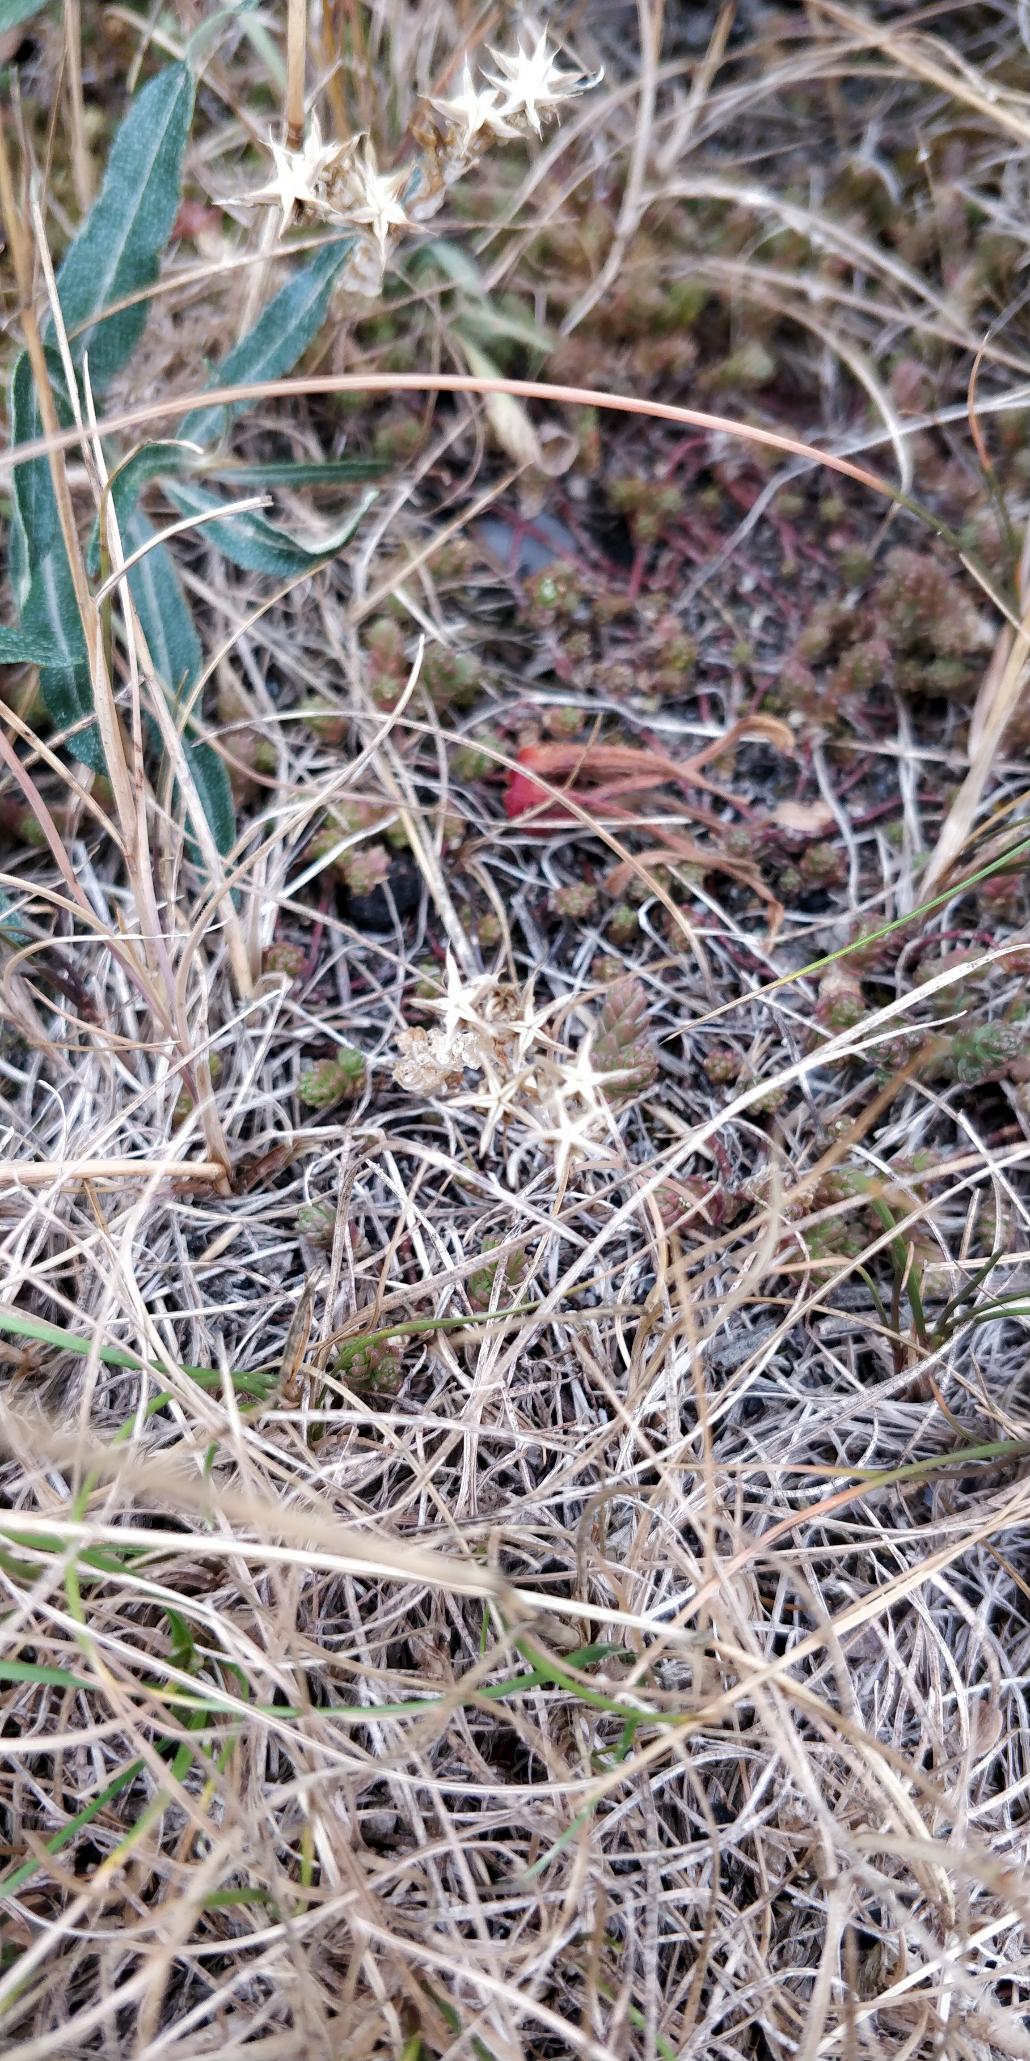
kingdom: Plantae
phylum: Tracheophyta
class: Magnoliopsida
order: Saxifragales
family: Crassulaceae
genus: Sedum
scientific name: Sedum acre
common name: Bidende stenurt
